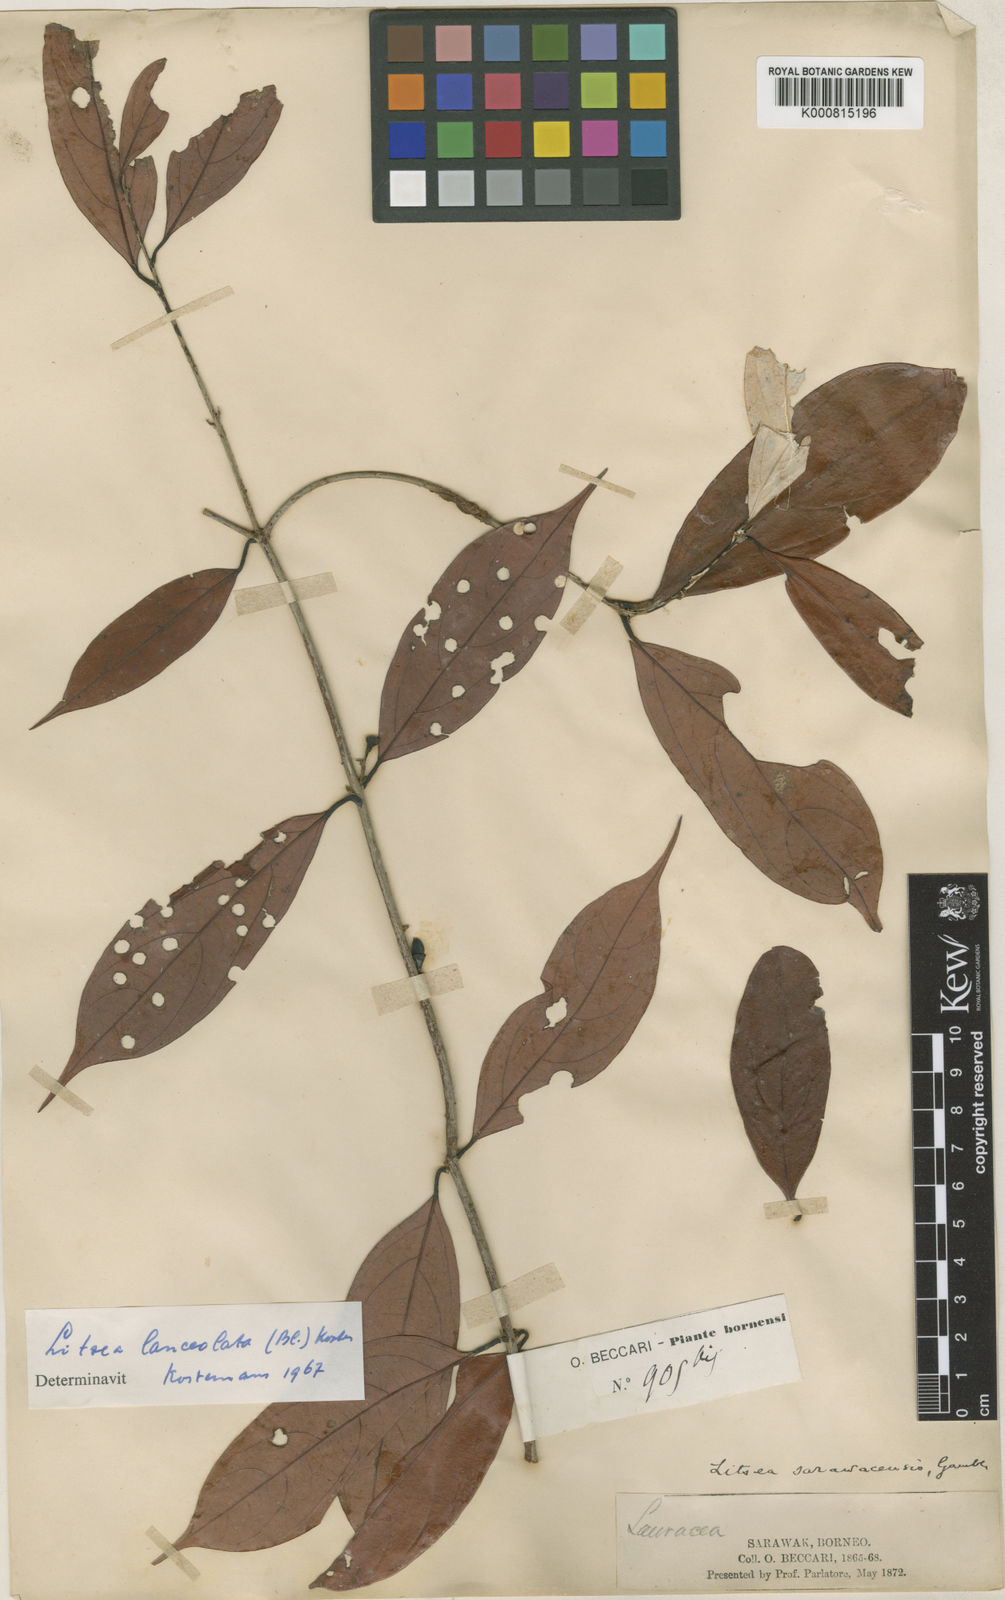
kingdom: Plantae
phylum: Tracheophyta
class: Magnoliopsida
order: Laurales
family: Lauraceae
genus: Litsea
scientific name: Litsea lanceolata
